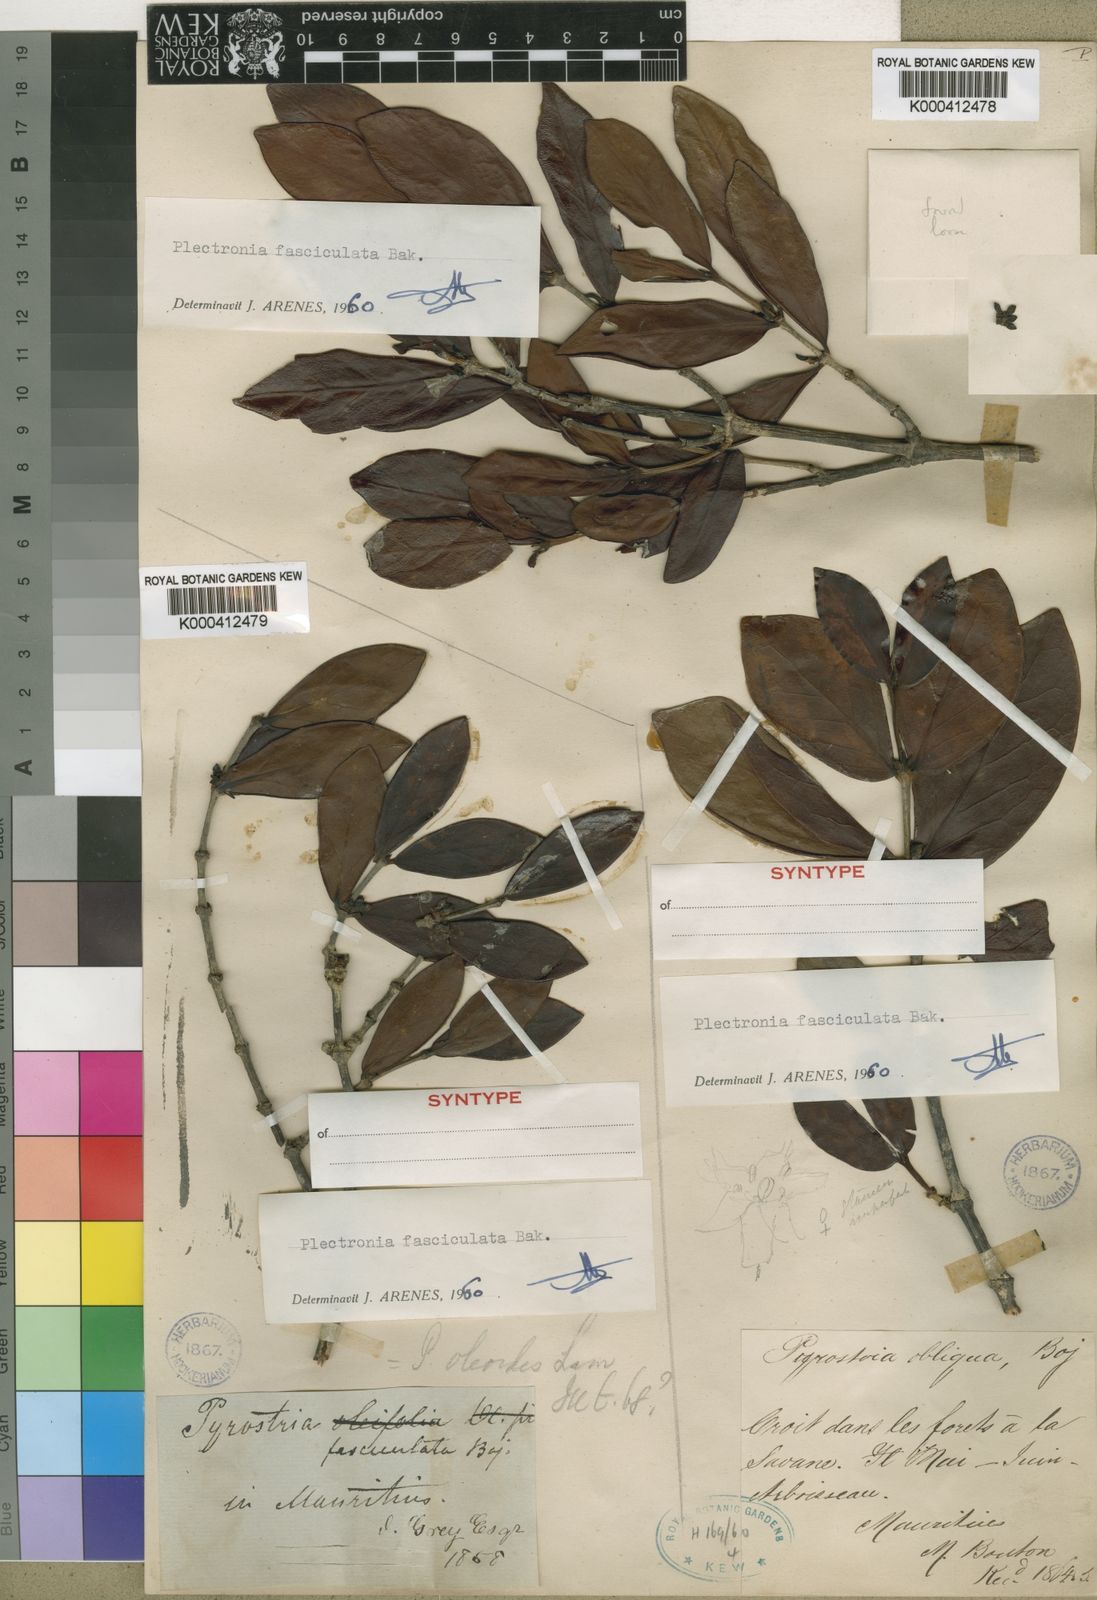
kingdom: Plantae
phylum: Tracheophyta
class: Magnoliopsida
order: Gentianales
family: Rubiaceae
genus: Pyrostria
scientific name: Pyrostria fasciculata
